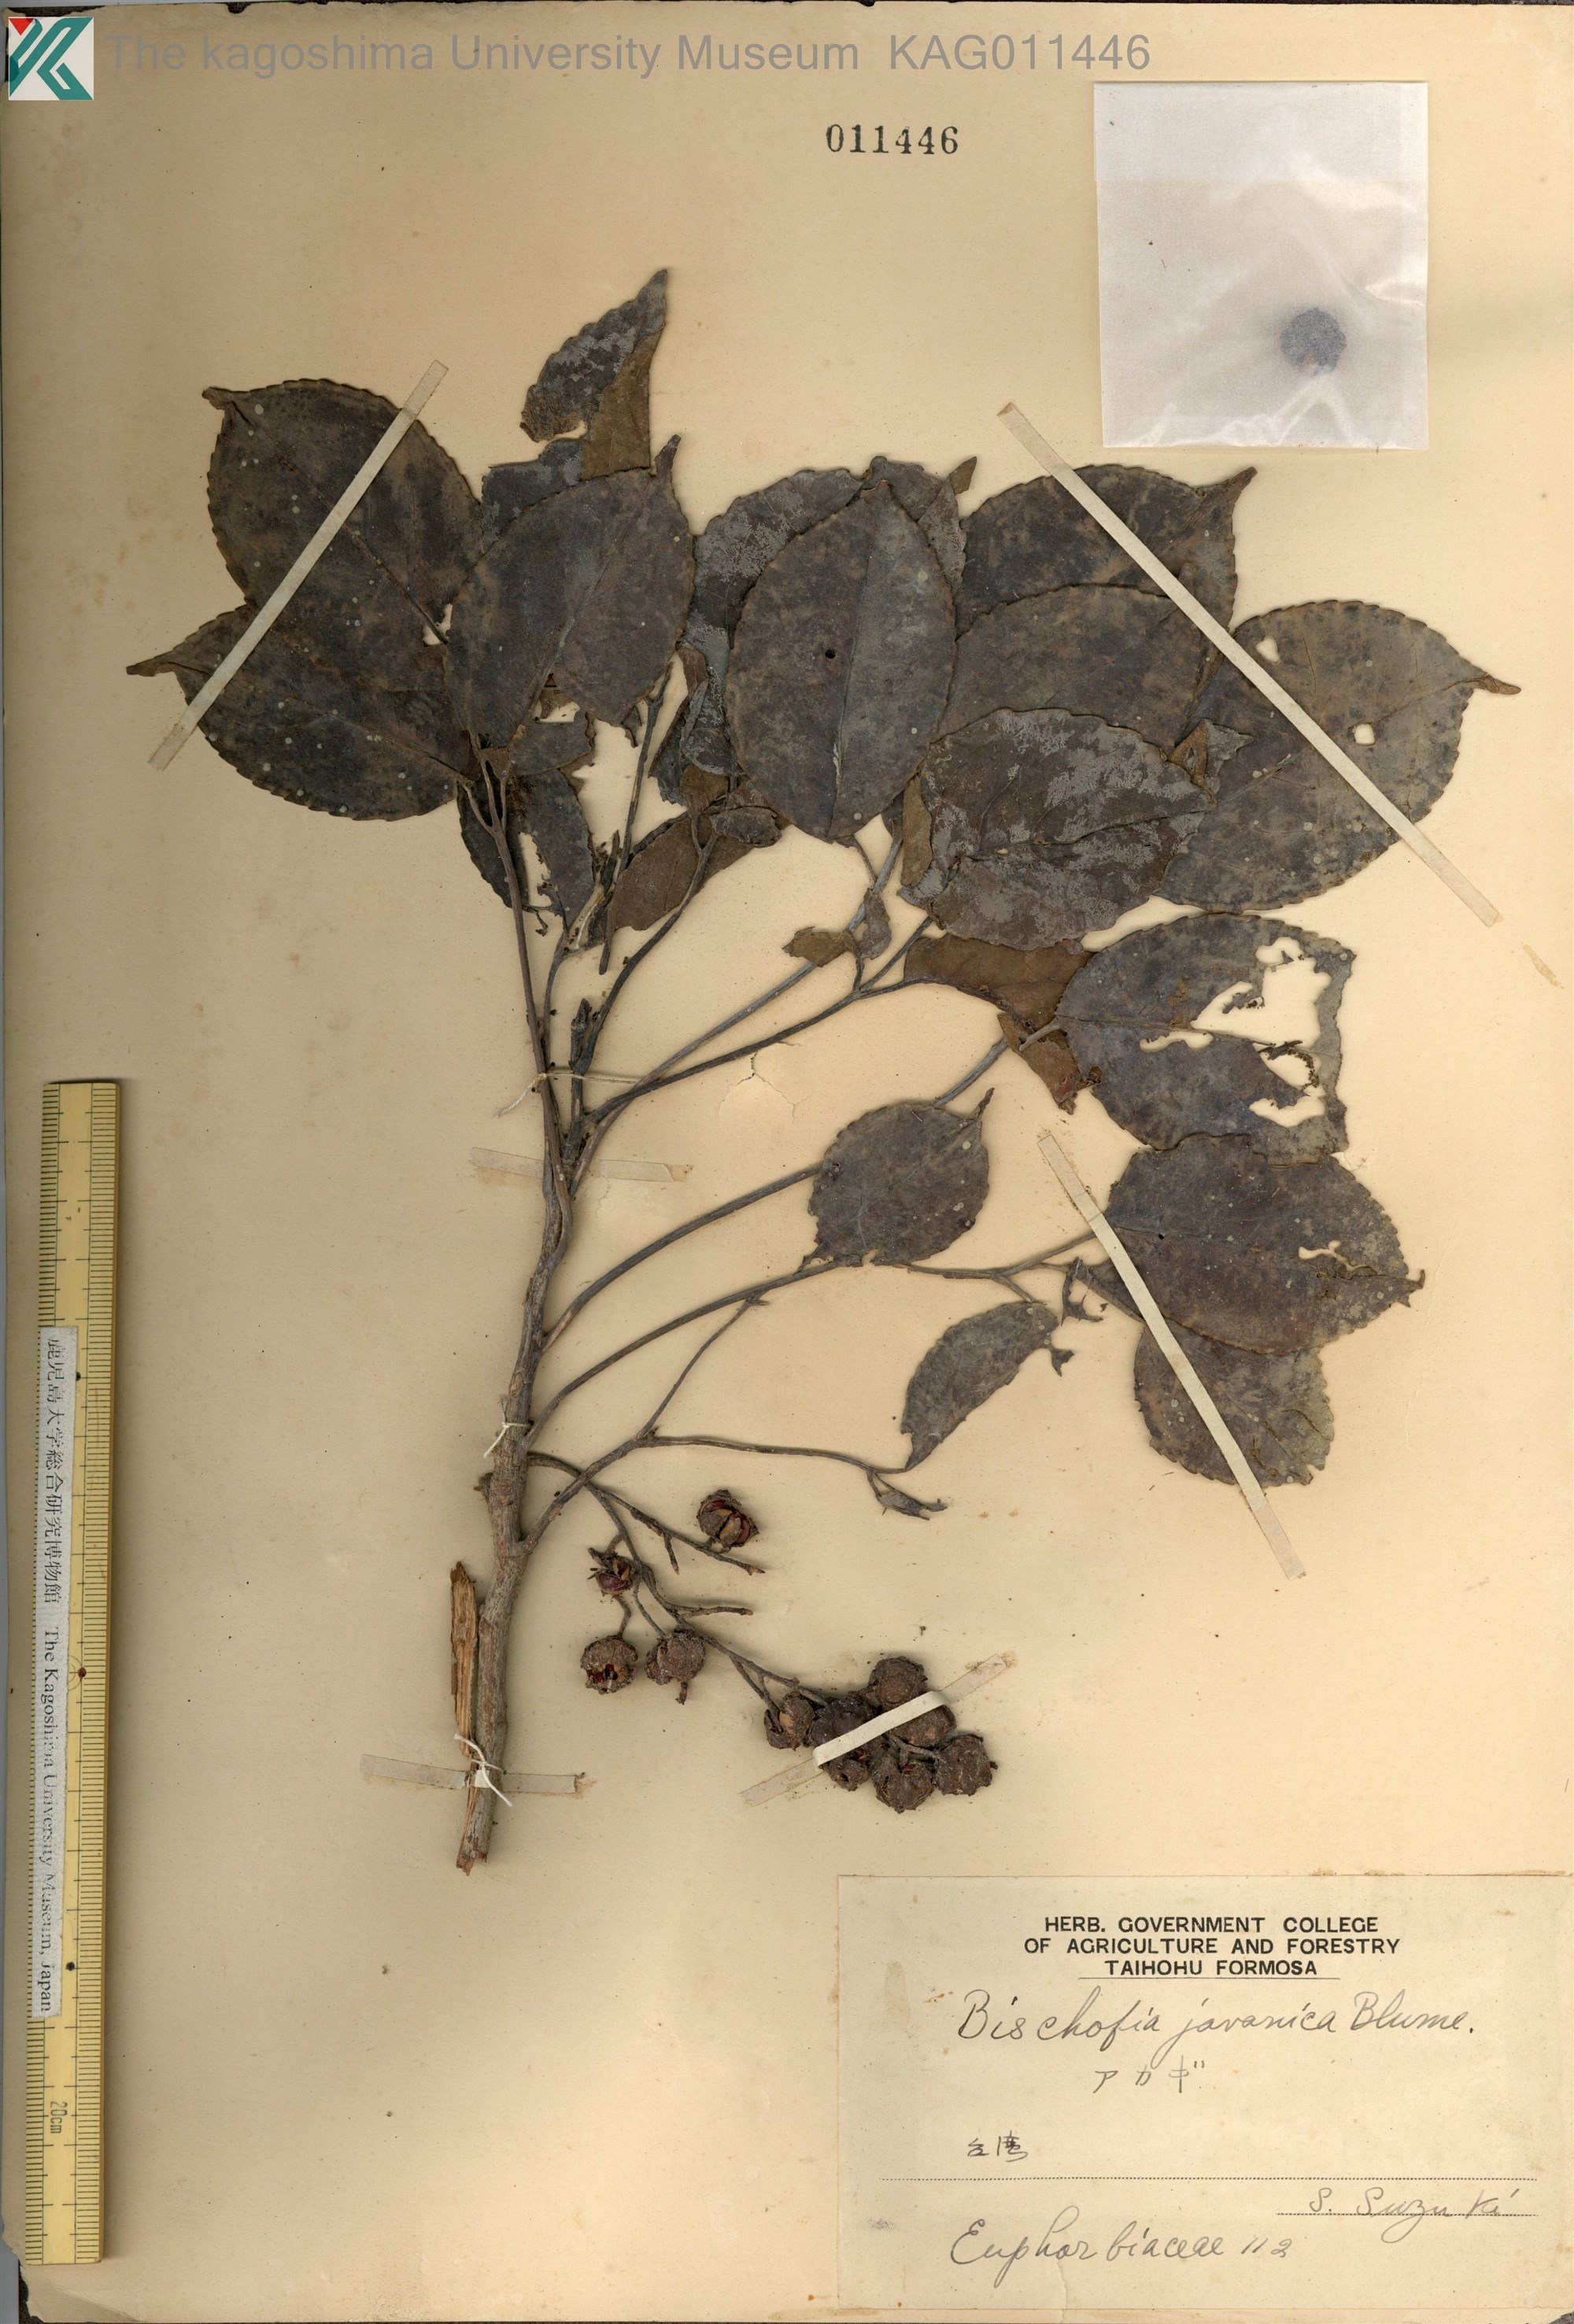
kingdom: Plantae
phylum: Tracheophyta
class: Magnoliopsida
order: Malpighiales
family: Phyllanthaceae
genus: Bischofia
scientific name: Bischofia javanica
